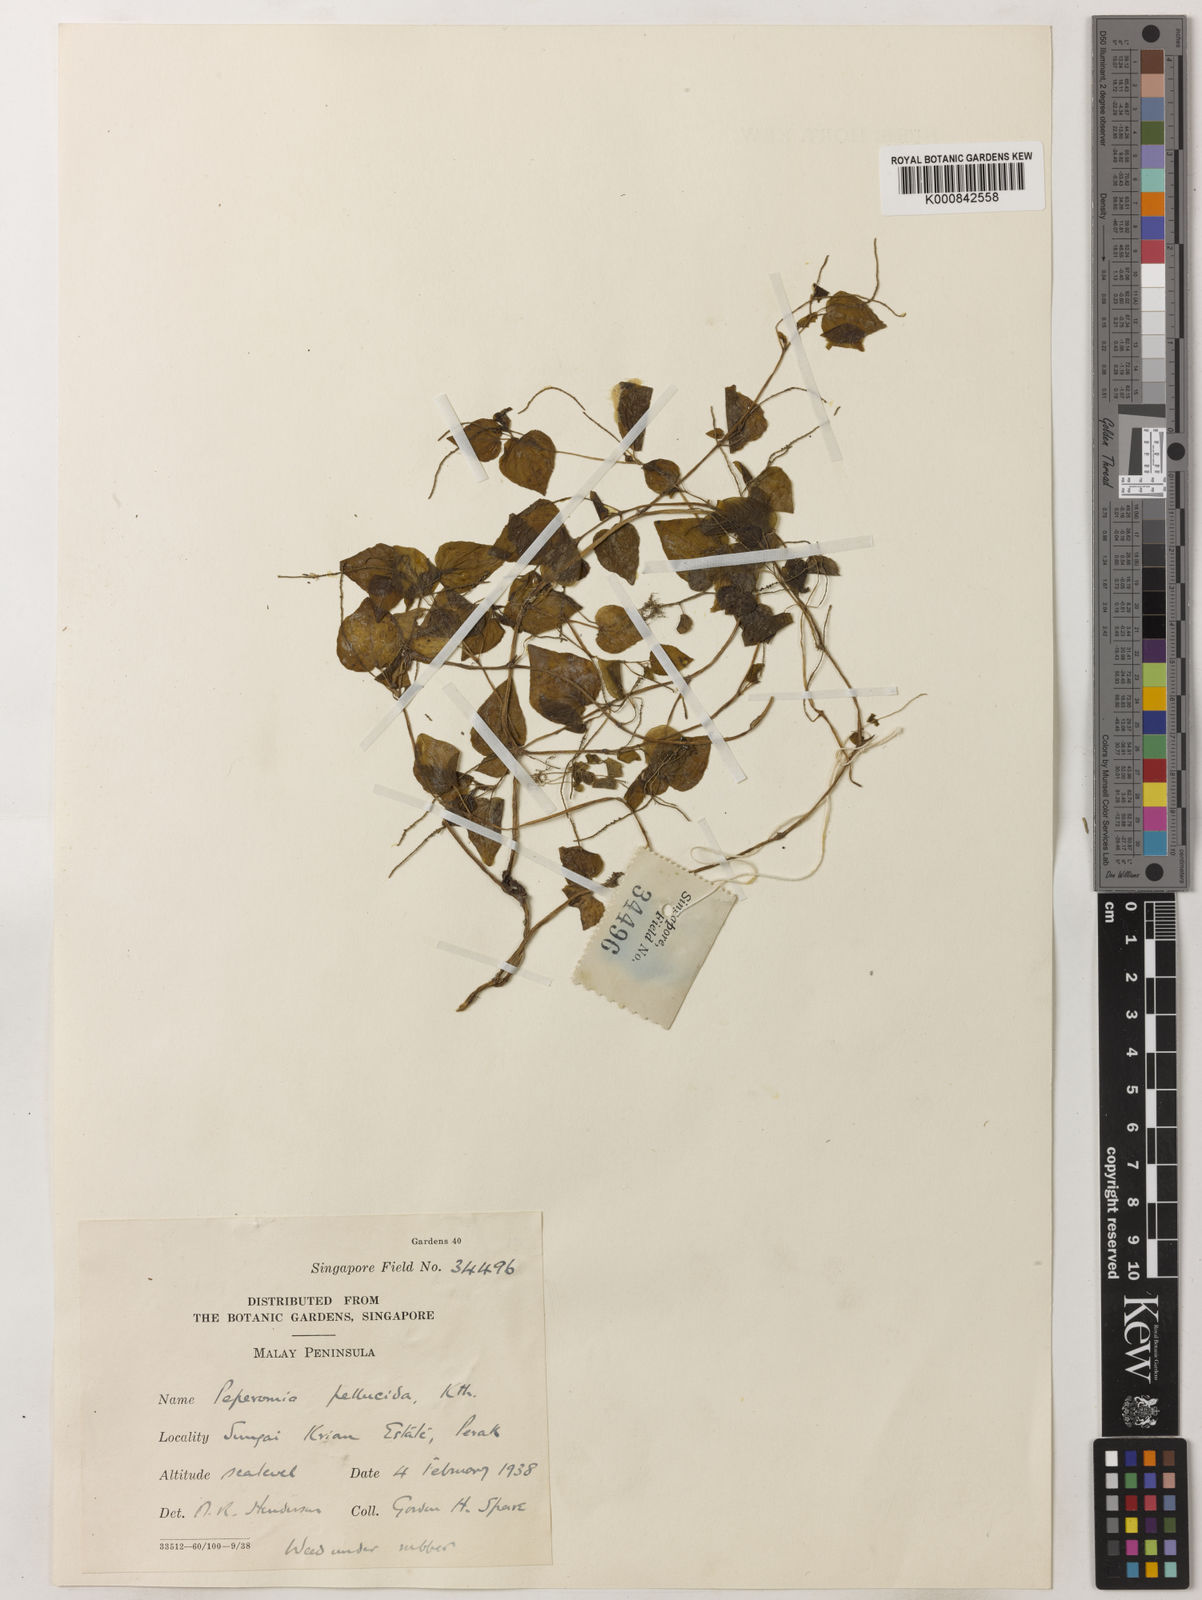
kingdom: Plantae
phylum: Tracheophyta
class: Magnoliopsida
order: Piperales
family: Piperaceae
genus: Peperomia
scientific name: Peperomia pellucida
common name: Man to man
